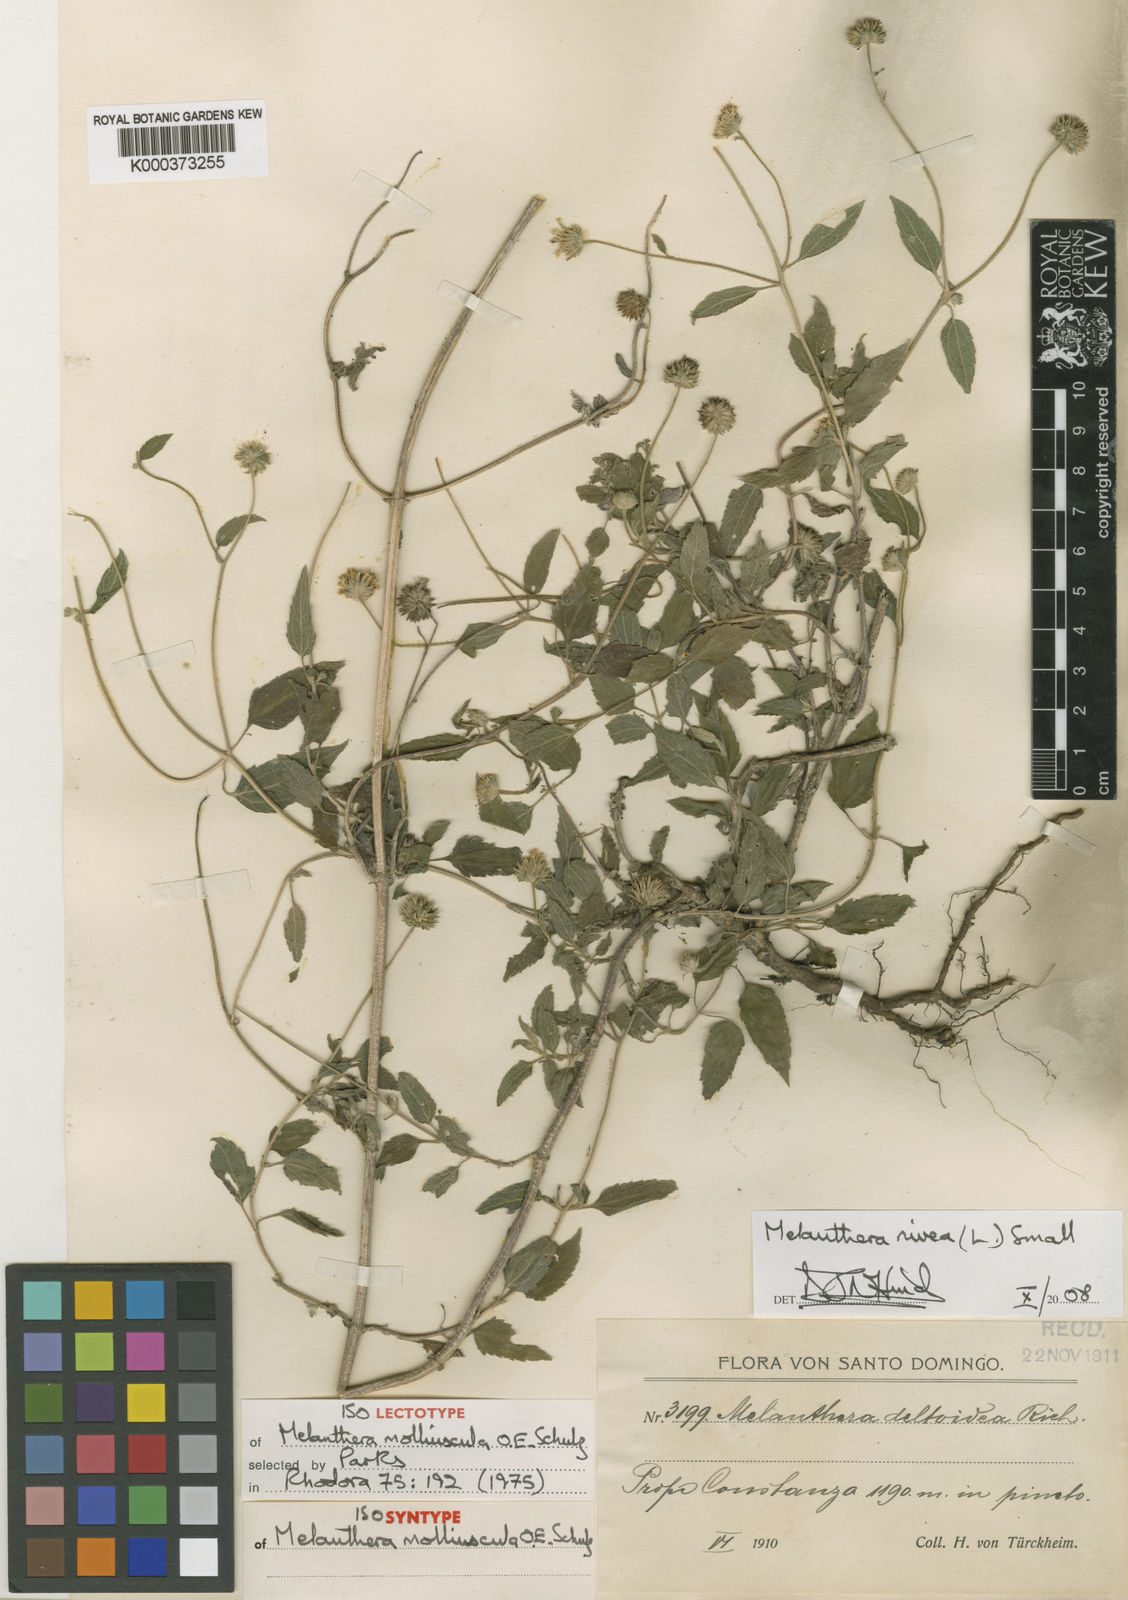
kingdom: Plantae
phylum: Tracheophyta
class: Magnoliopsida
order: Asterales
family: Asteraceae
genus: Melanthera
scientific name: Melanthera nivea
